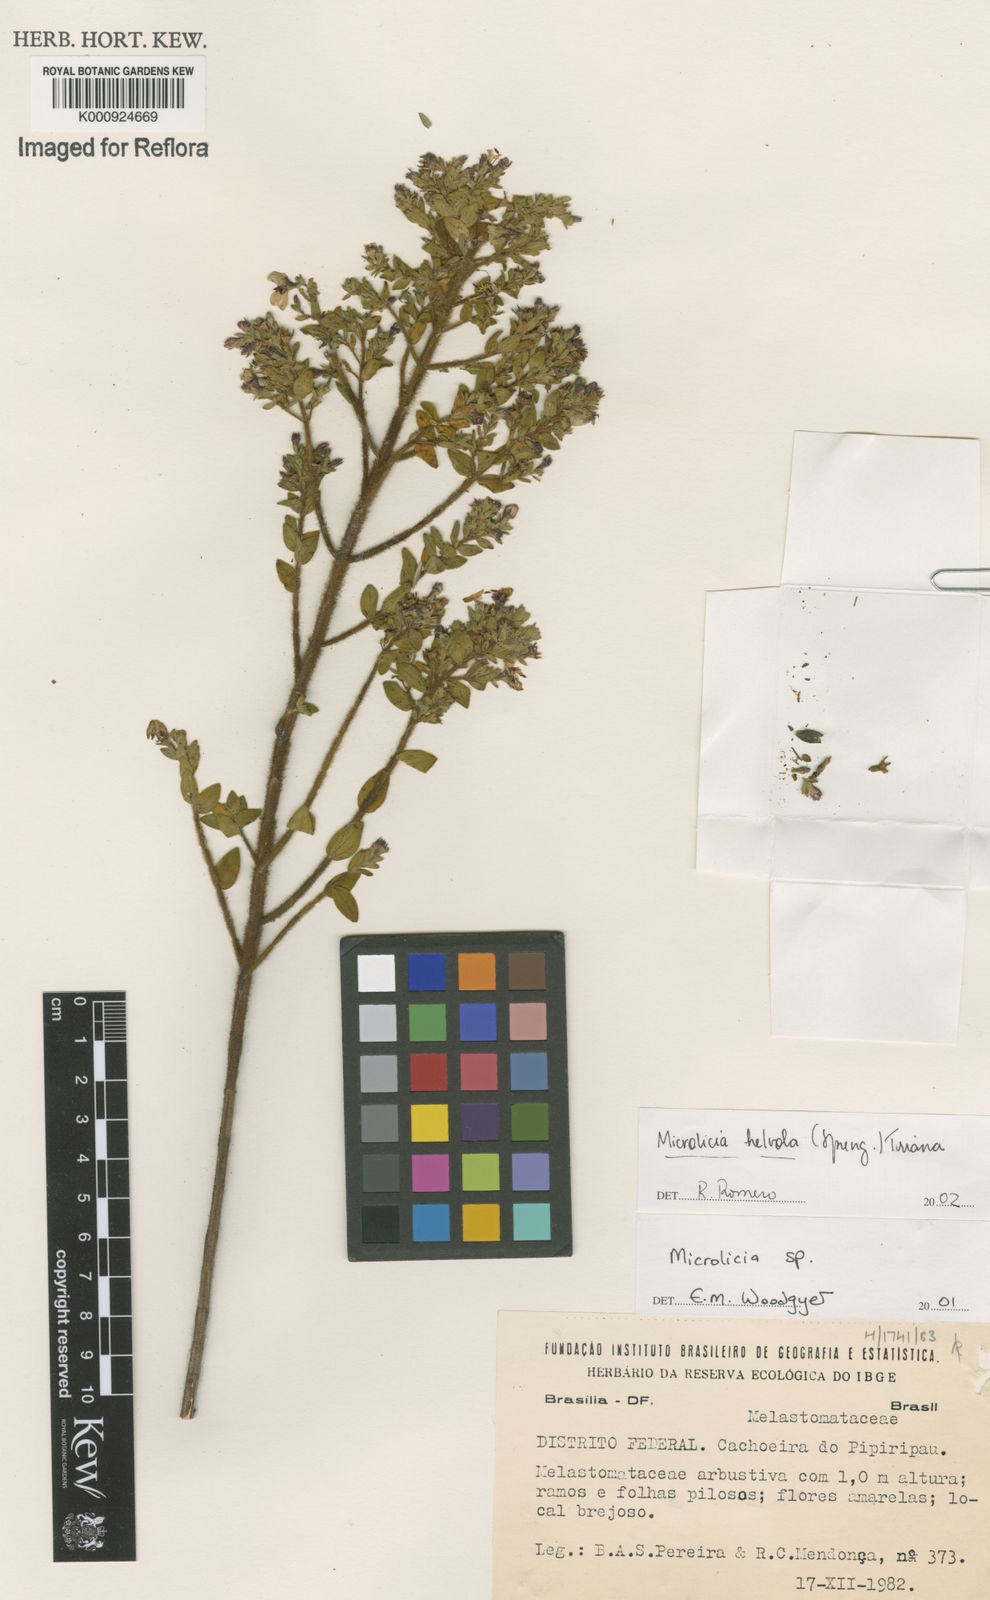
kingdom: Plantae
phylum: Tracheophyta
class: Magnoliopsida
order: Myrtales
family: Melastomataceae
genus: Microlicia
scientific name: Microlicia helvola
